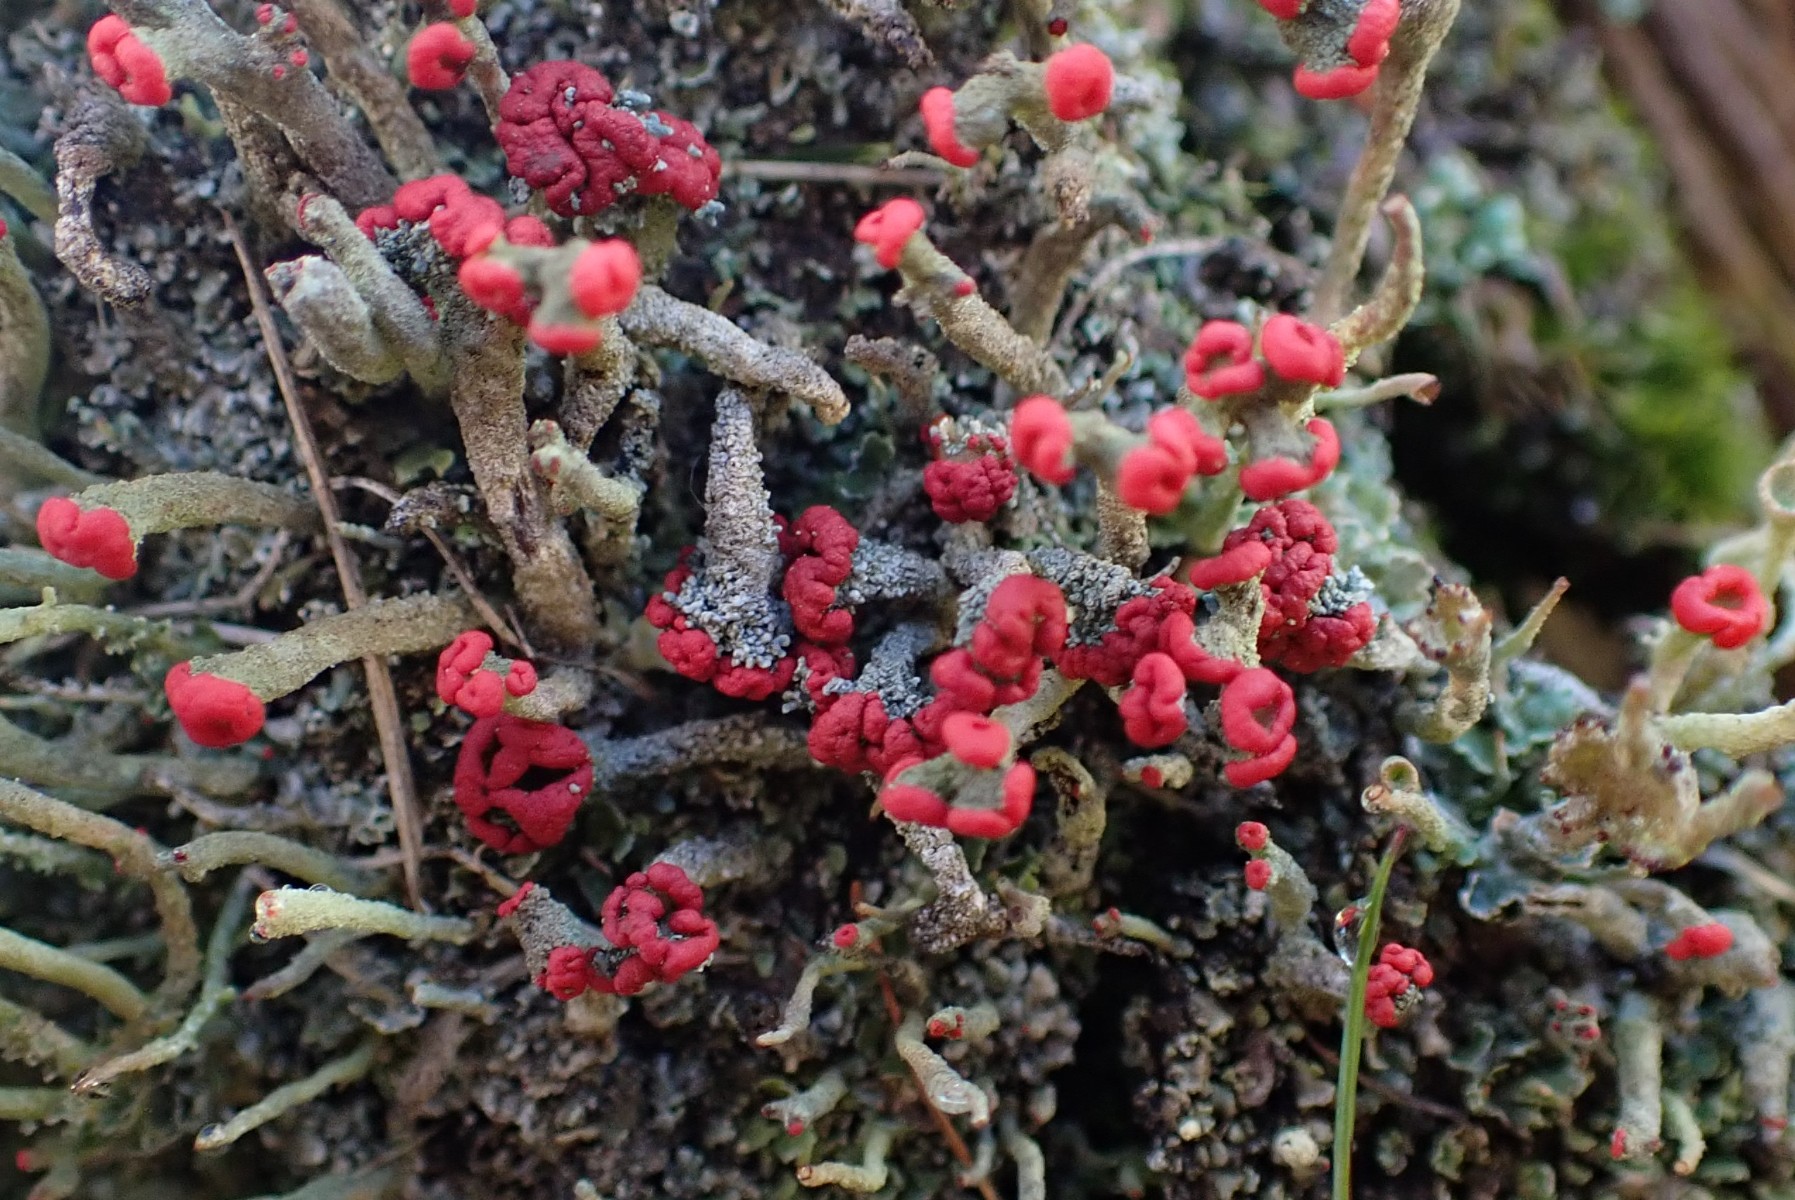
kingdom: Fungi
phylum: Ascomycota
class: Lecanoromycetes
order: Lecanorales
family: Cladoniaceae
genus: Cladonia
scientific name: Cladonia floerkeana
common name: lakrød bægerlav
